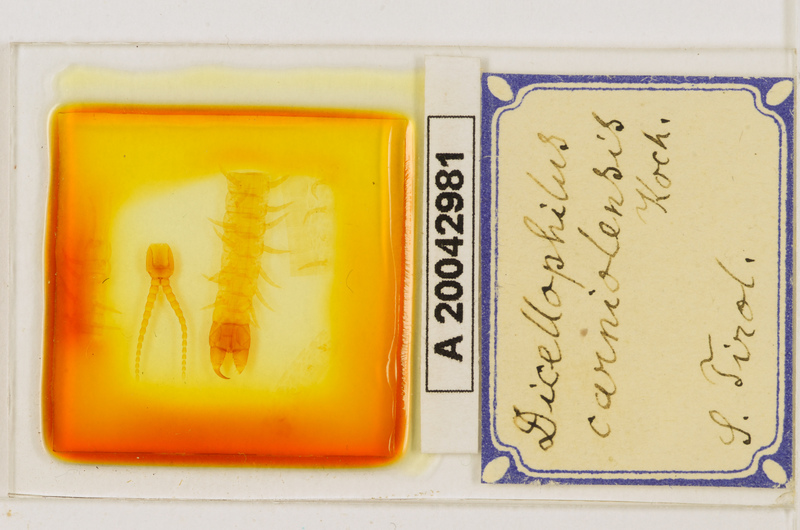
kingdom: Animalia
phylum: Arthropoda
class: Chilopoda
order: Geophilomorpha
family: Mecistocephalidae
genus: Dicellophilus
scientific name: Dicellophilus carniolensis
